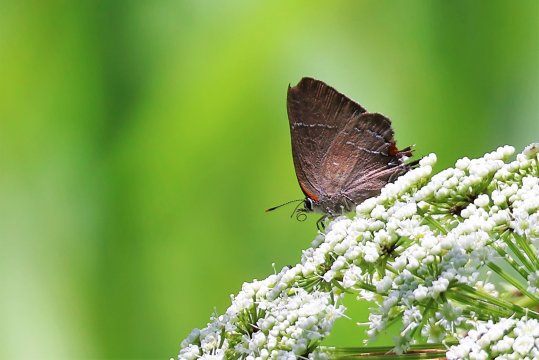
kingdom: Animalia
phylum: Arthropoda
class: Insecta
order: Lepidoptera
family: Lycaenidae
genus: Parrhasius
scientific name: Parrhasius m-album
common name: White-m Hairstreak
